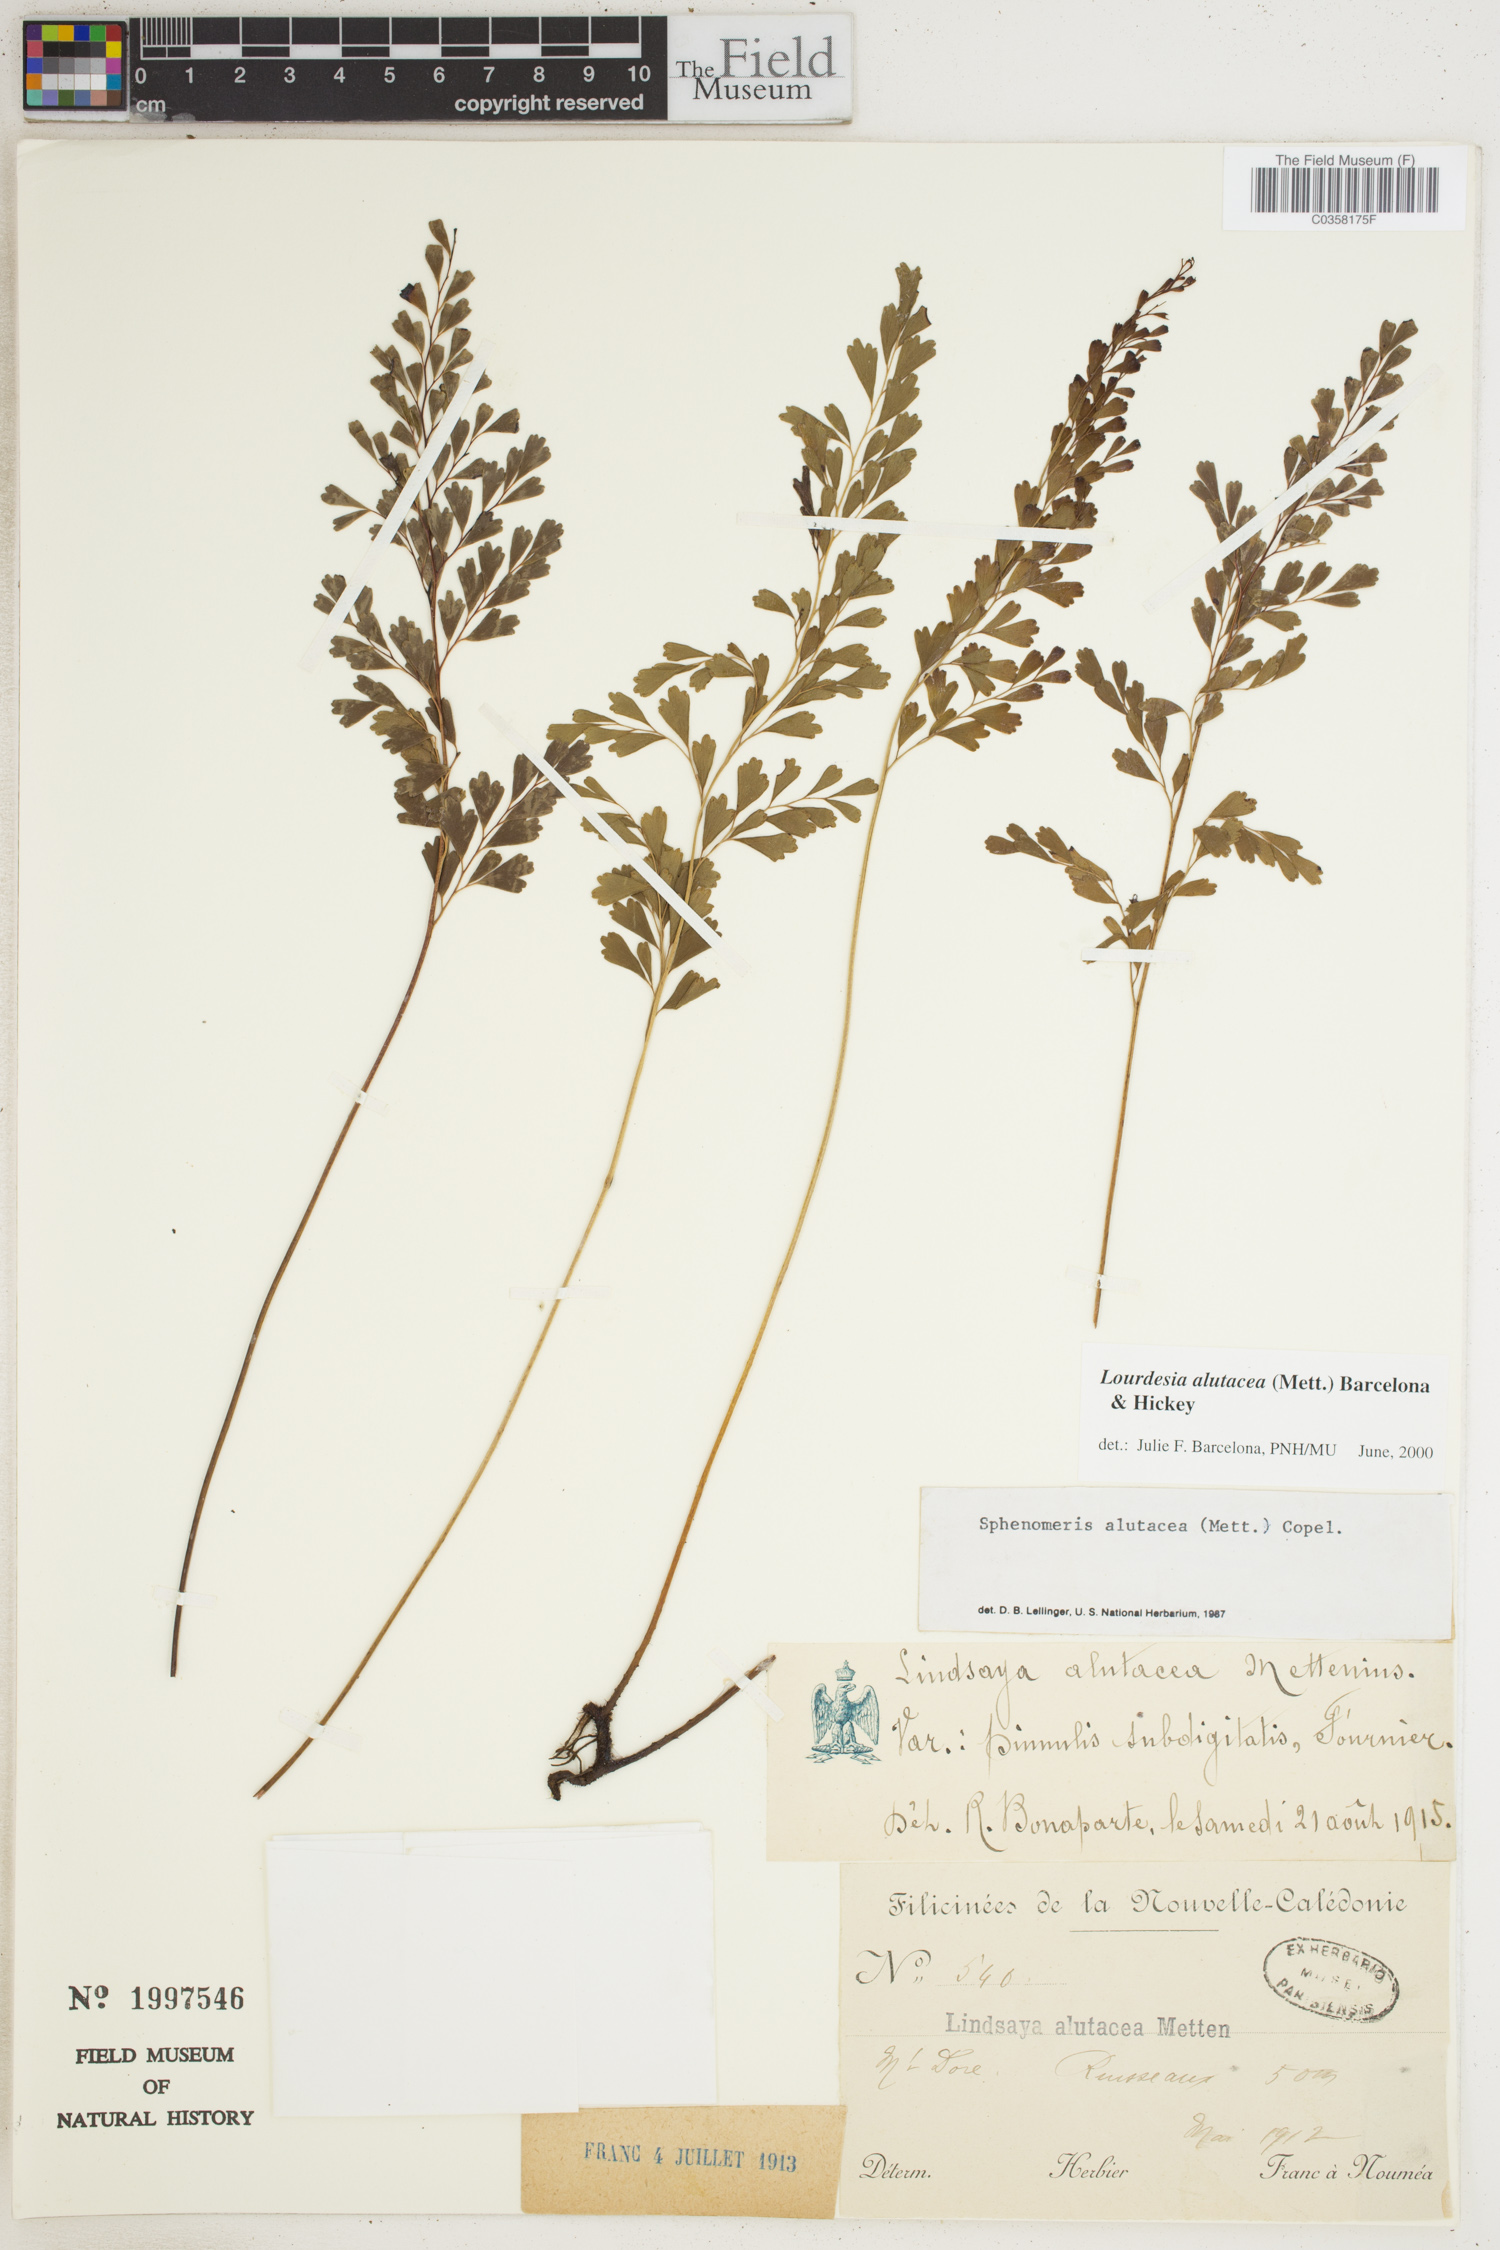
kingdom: Plantae
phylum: Tracheophyta
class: Polypodiopsida
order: Polypodiales
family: Lindsaeaceae
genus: Odontosoria
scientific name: Odontosoria alutacea
